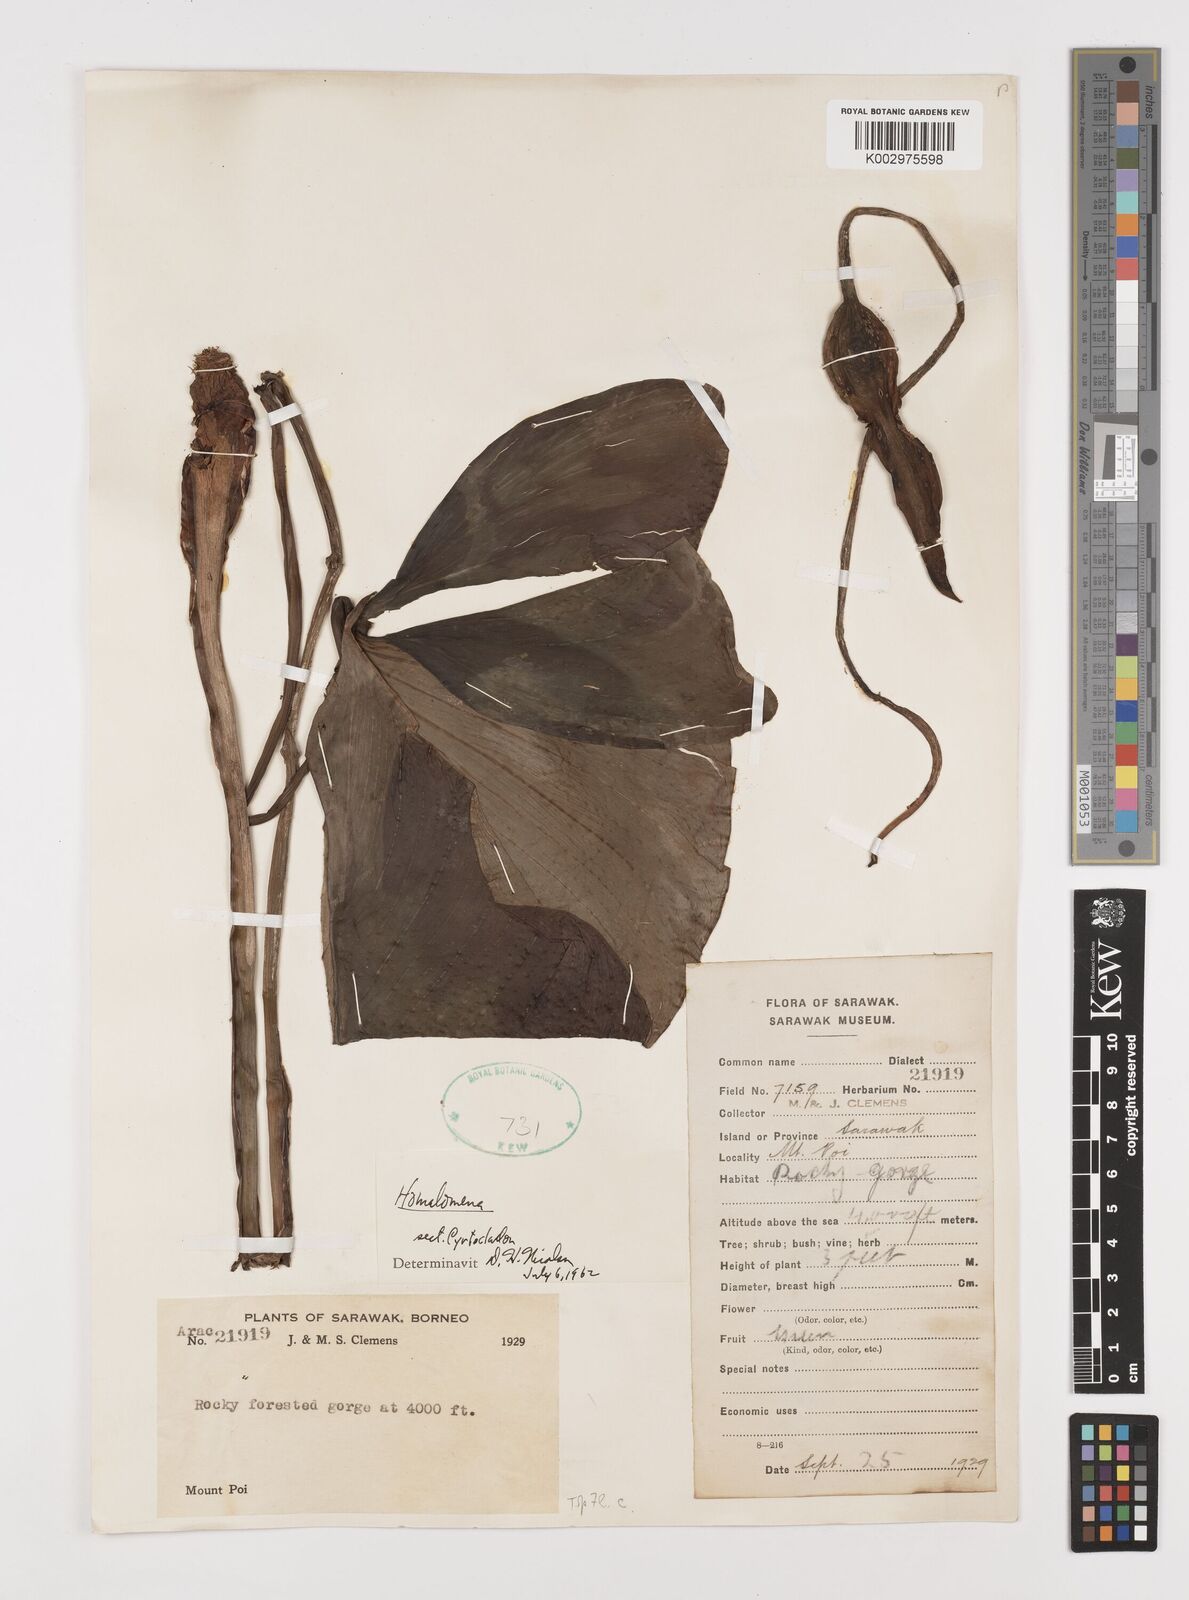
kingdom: Plantae
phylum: Tracheophyta
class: Liliopsida
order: Alismatales
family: Araceae
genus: Homalomena
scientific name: Homalomena
